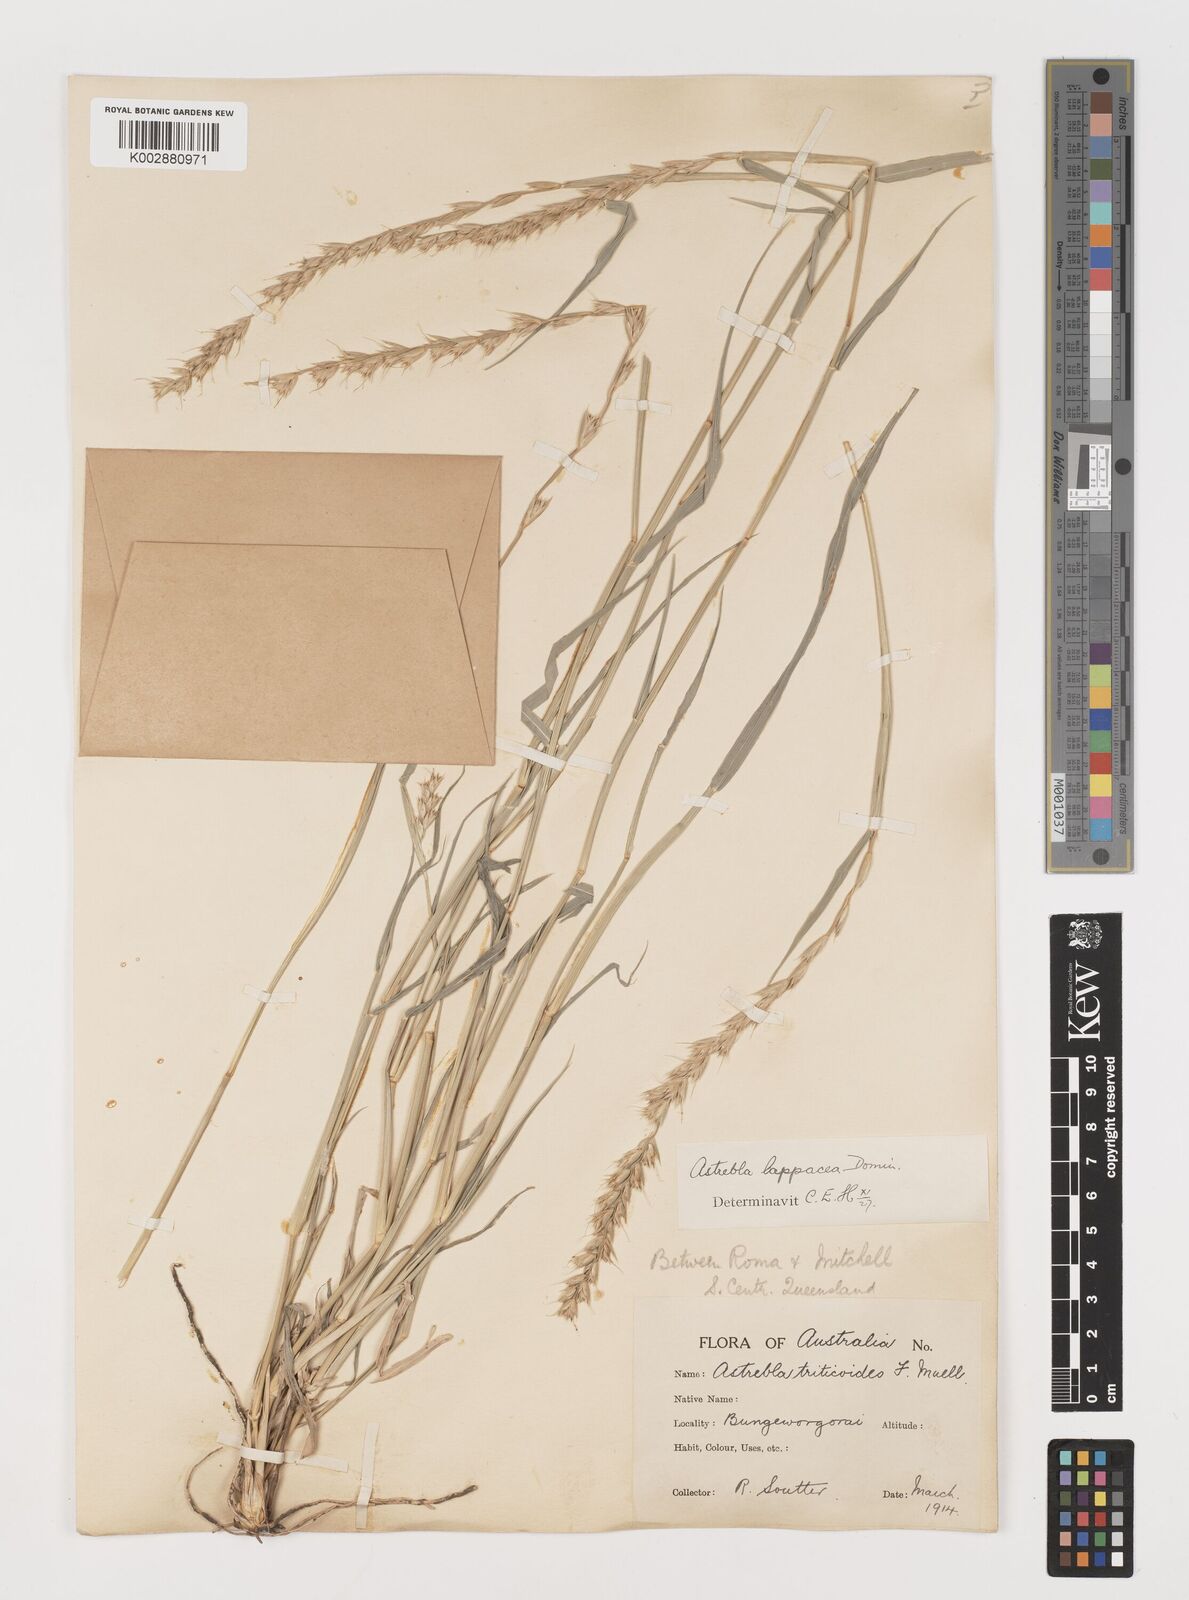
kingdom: Plantae
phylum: Tracheophyta
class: Liliopsida
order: Poales
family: Poaceae
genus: Astrebla
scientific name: Astrebla lappacea
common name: Curly mitchell grass
